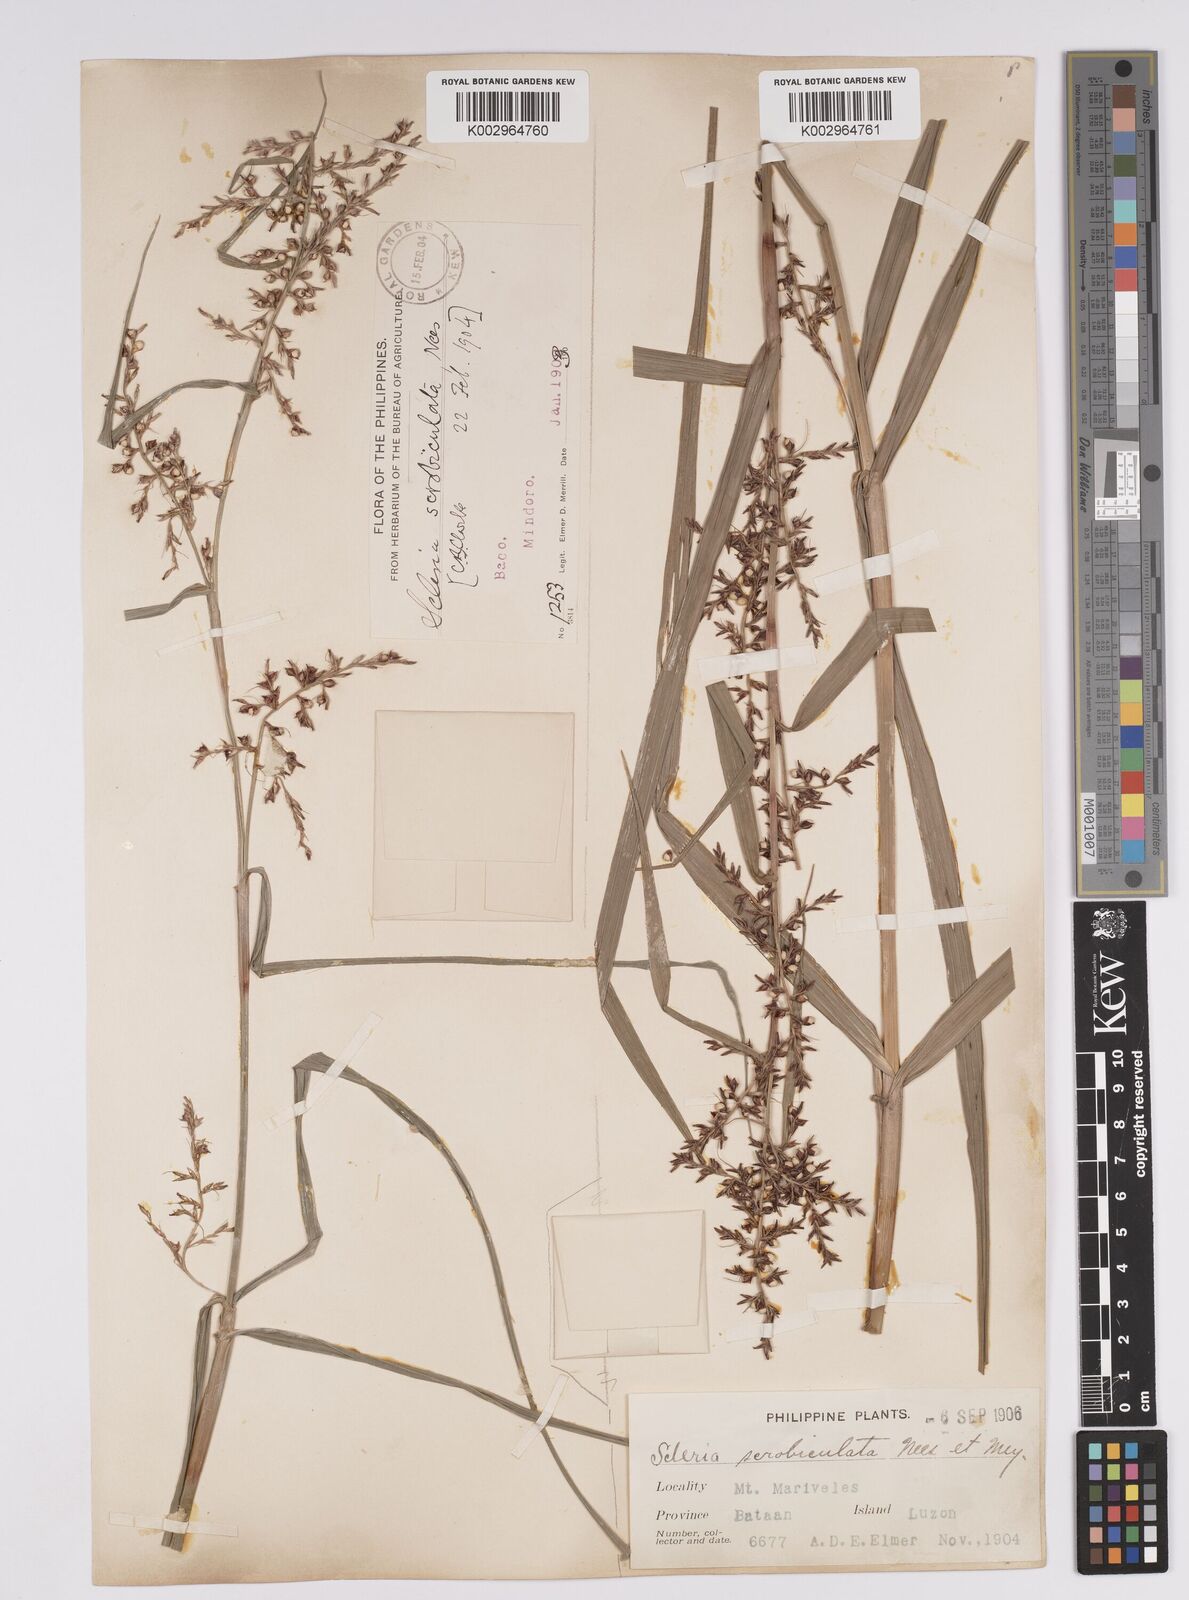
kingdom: Plantae
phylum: Tracheophyta
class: Liliopsida
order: Poales
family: Cyperaceae
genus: Scleria
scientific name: Scleria scrobiculata
